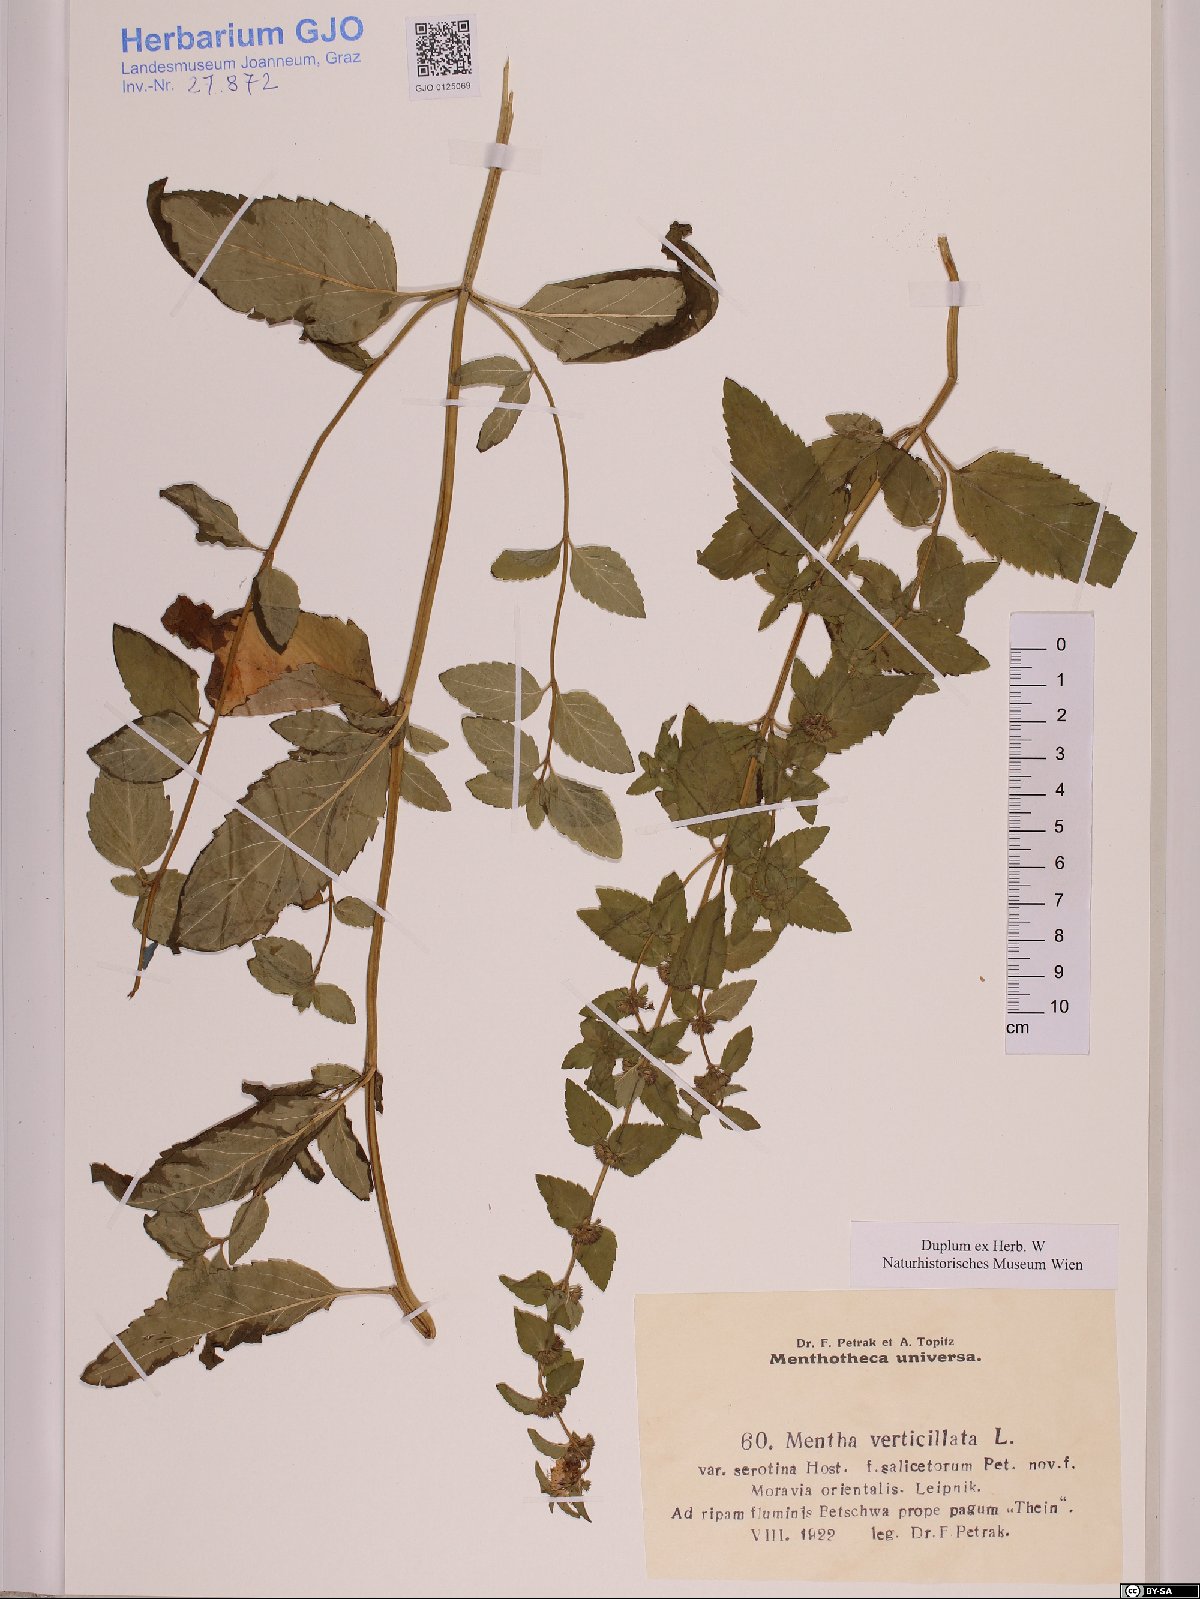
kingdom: Plantae
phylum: Tracheophyta
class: Magnoliopsida
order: Lamiales
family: Lamiaceae
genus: Mentha
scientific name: Mentha verticillata
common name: Mint
